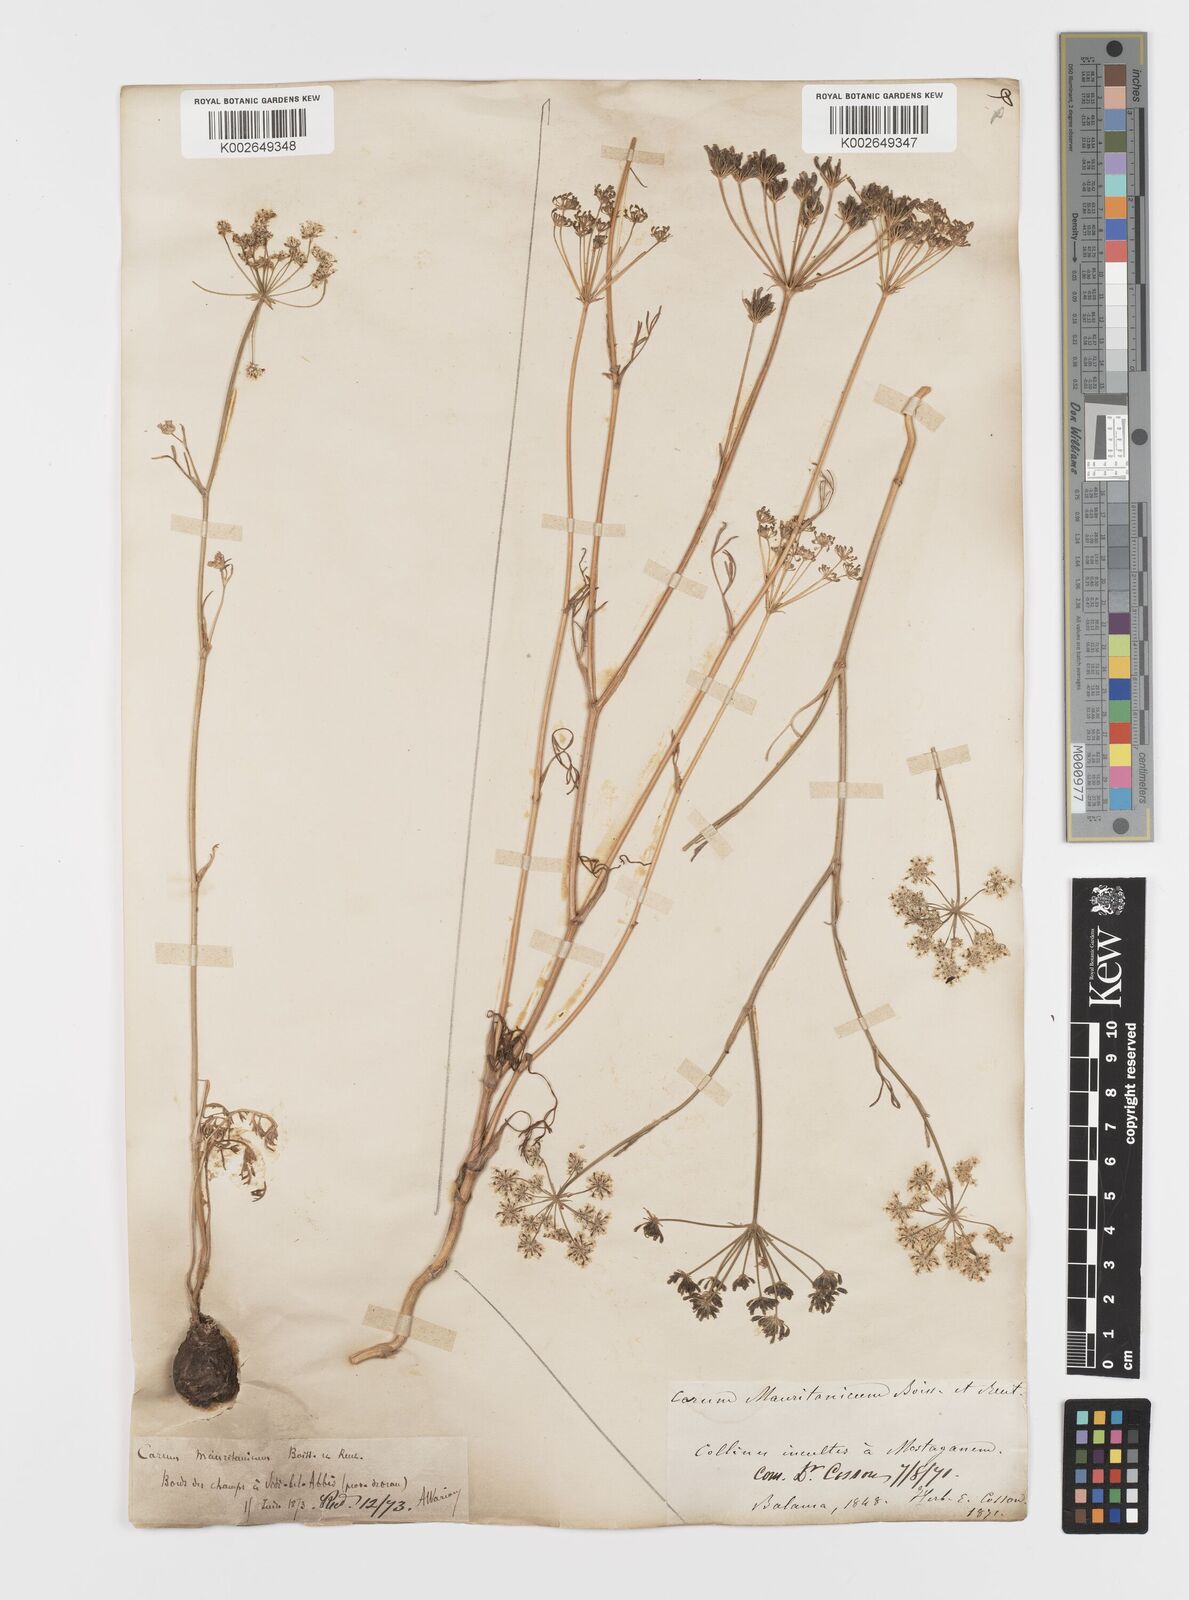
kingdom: Plantae
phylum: Tracheophyta
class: Magnoliopsida
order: Apiales
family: Apiaceae
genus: Bunium
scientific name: Bunium fontanesii
